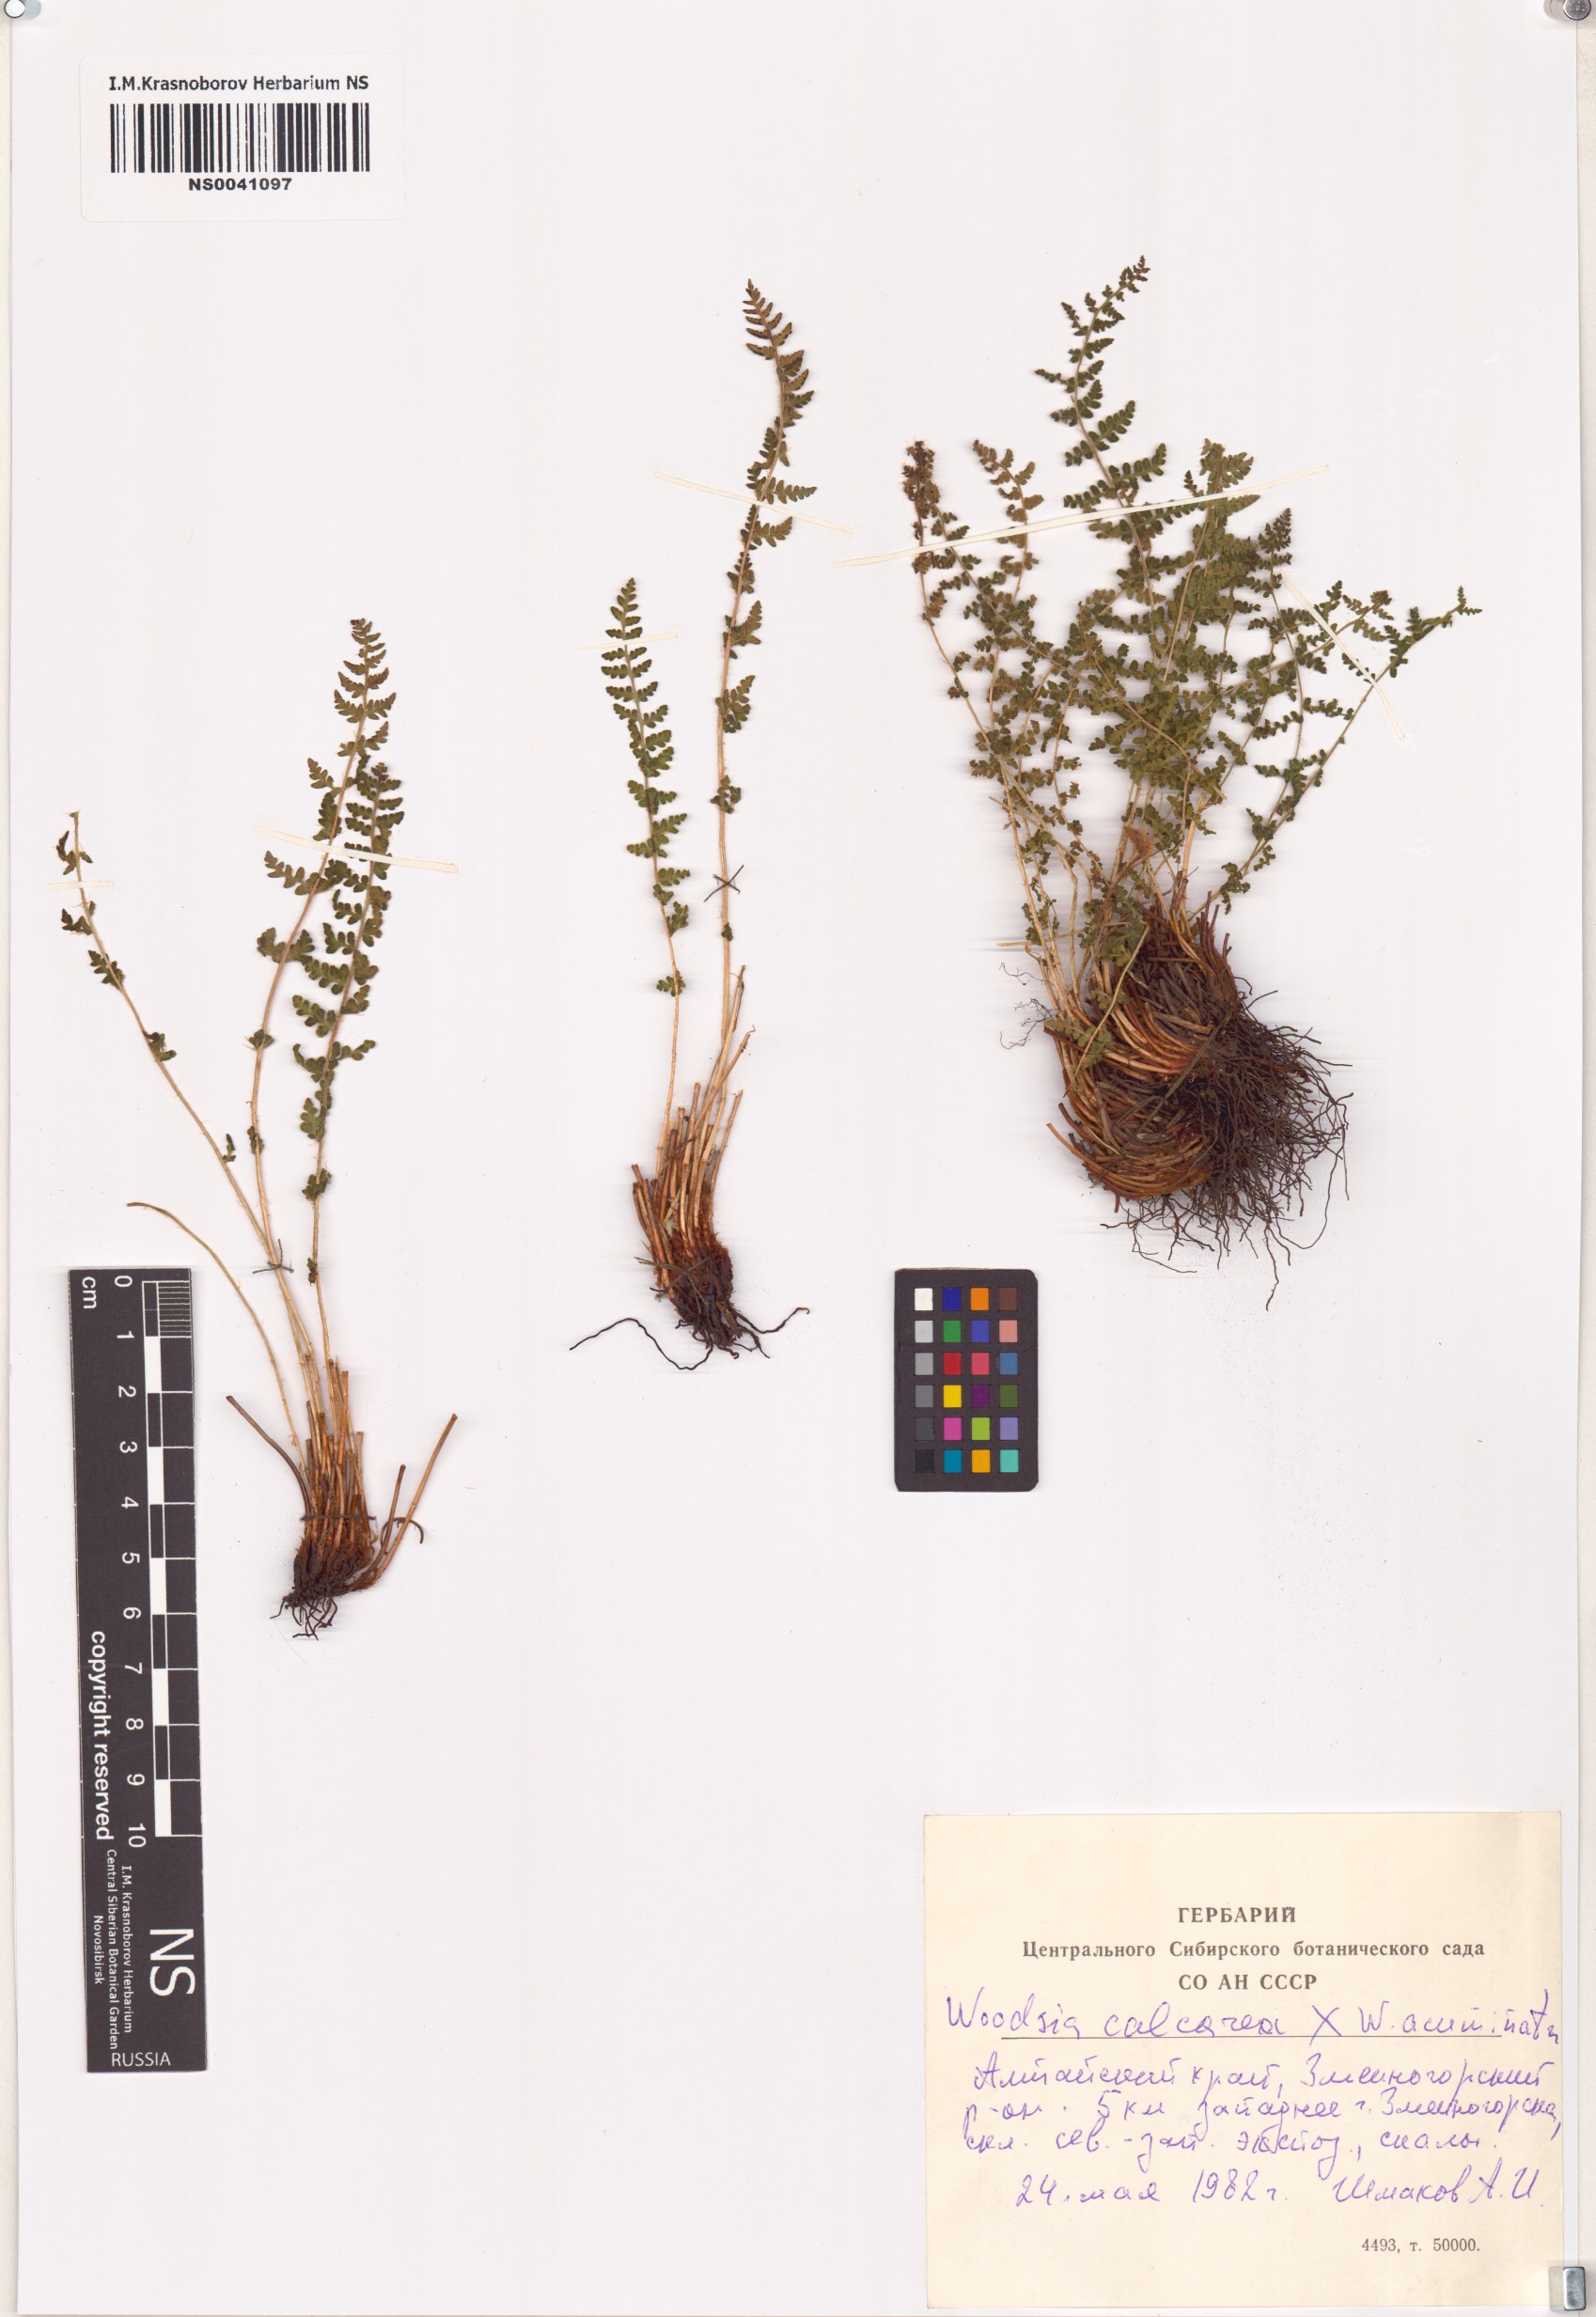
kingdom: Plantae
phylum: Tracheophyta
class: Polypodiopsida
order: Polypodiales
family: Woodsiaceae
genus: Woodsia
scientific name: Woodsia calcarea
